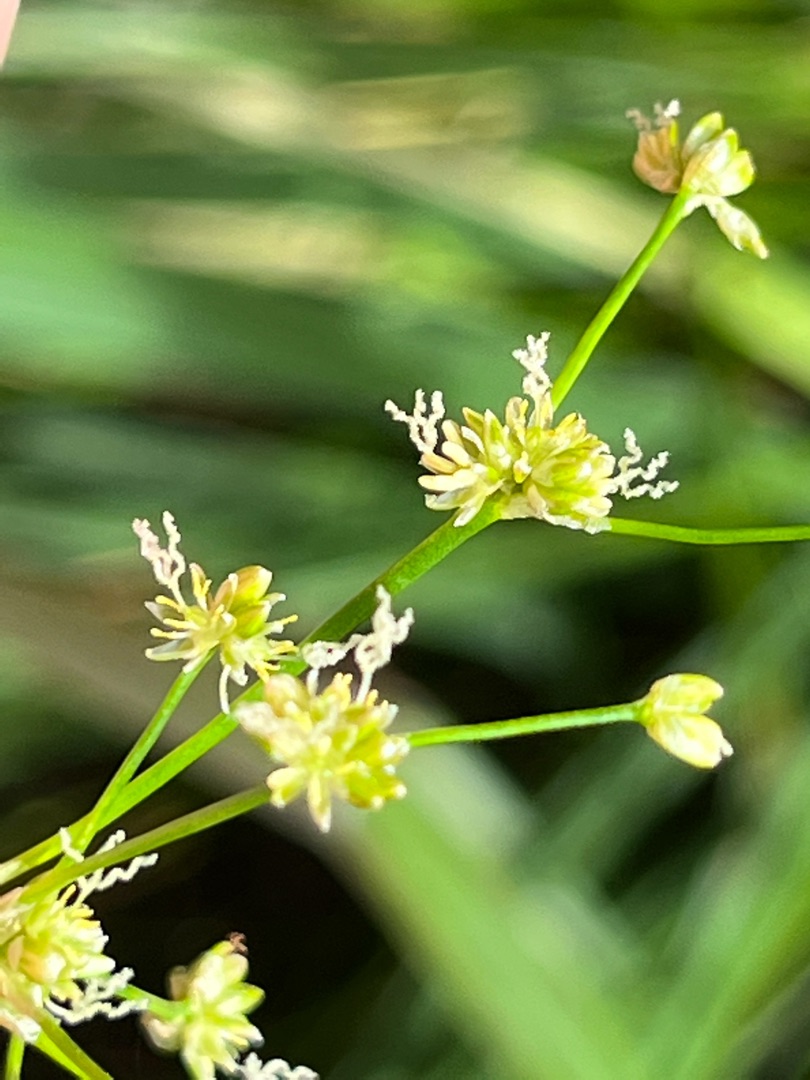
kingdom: Plantae
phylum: Tracheophyta
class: Liliopsida
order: Poales
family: Juncaceae
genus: Juncus
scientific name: Juncus subnodulosus
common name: Butblomstret siv
